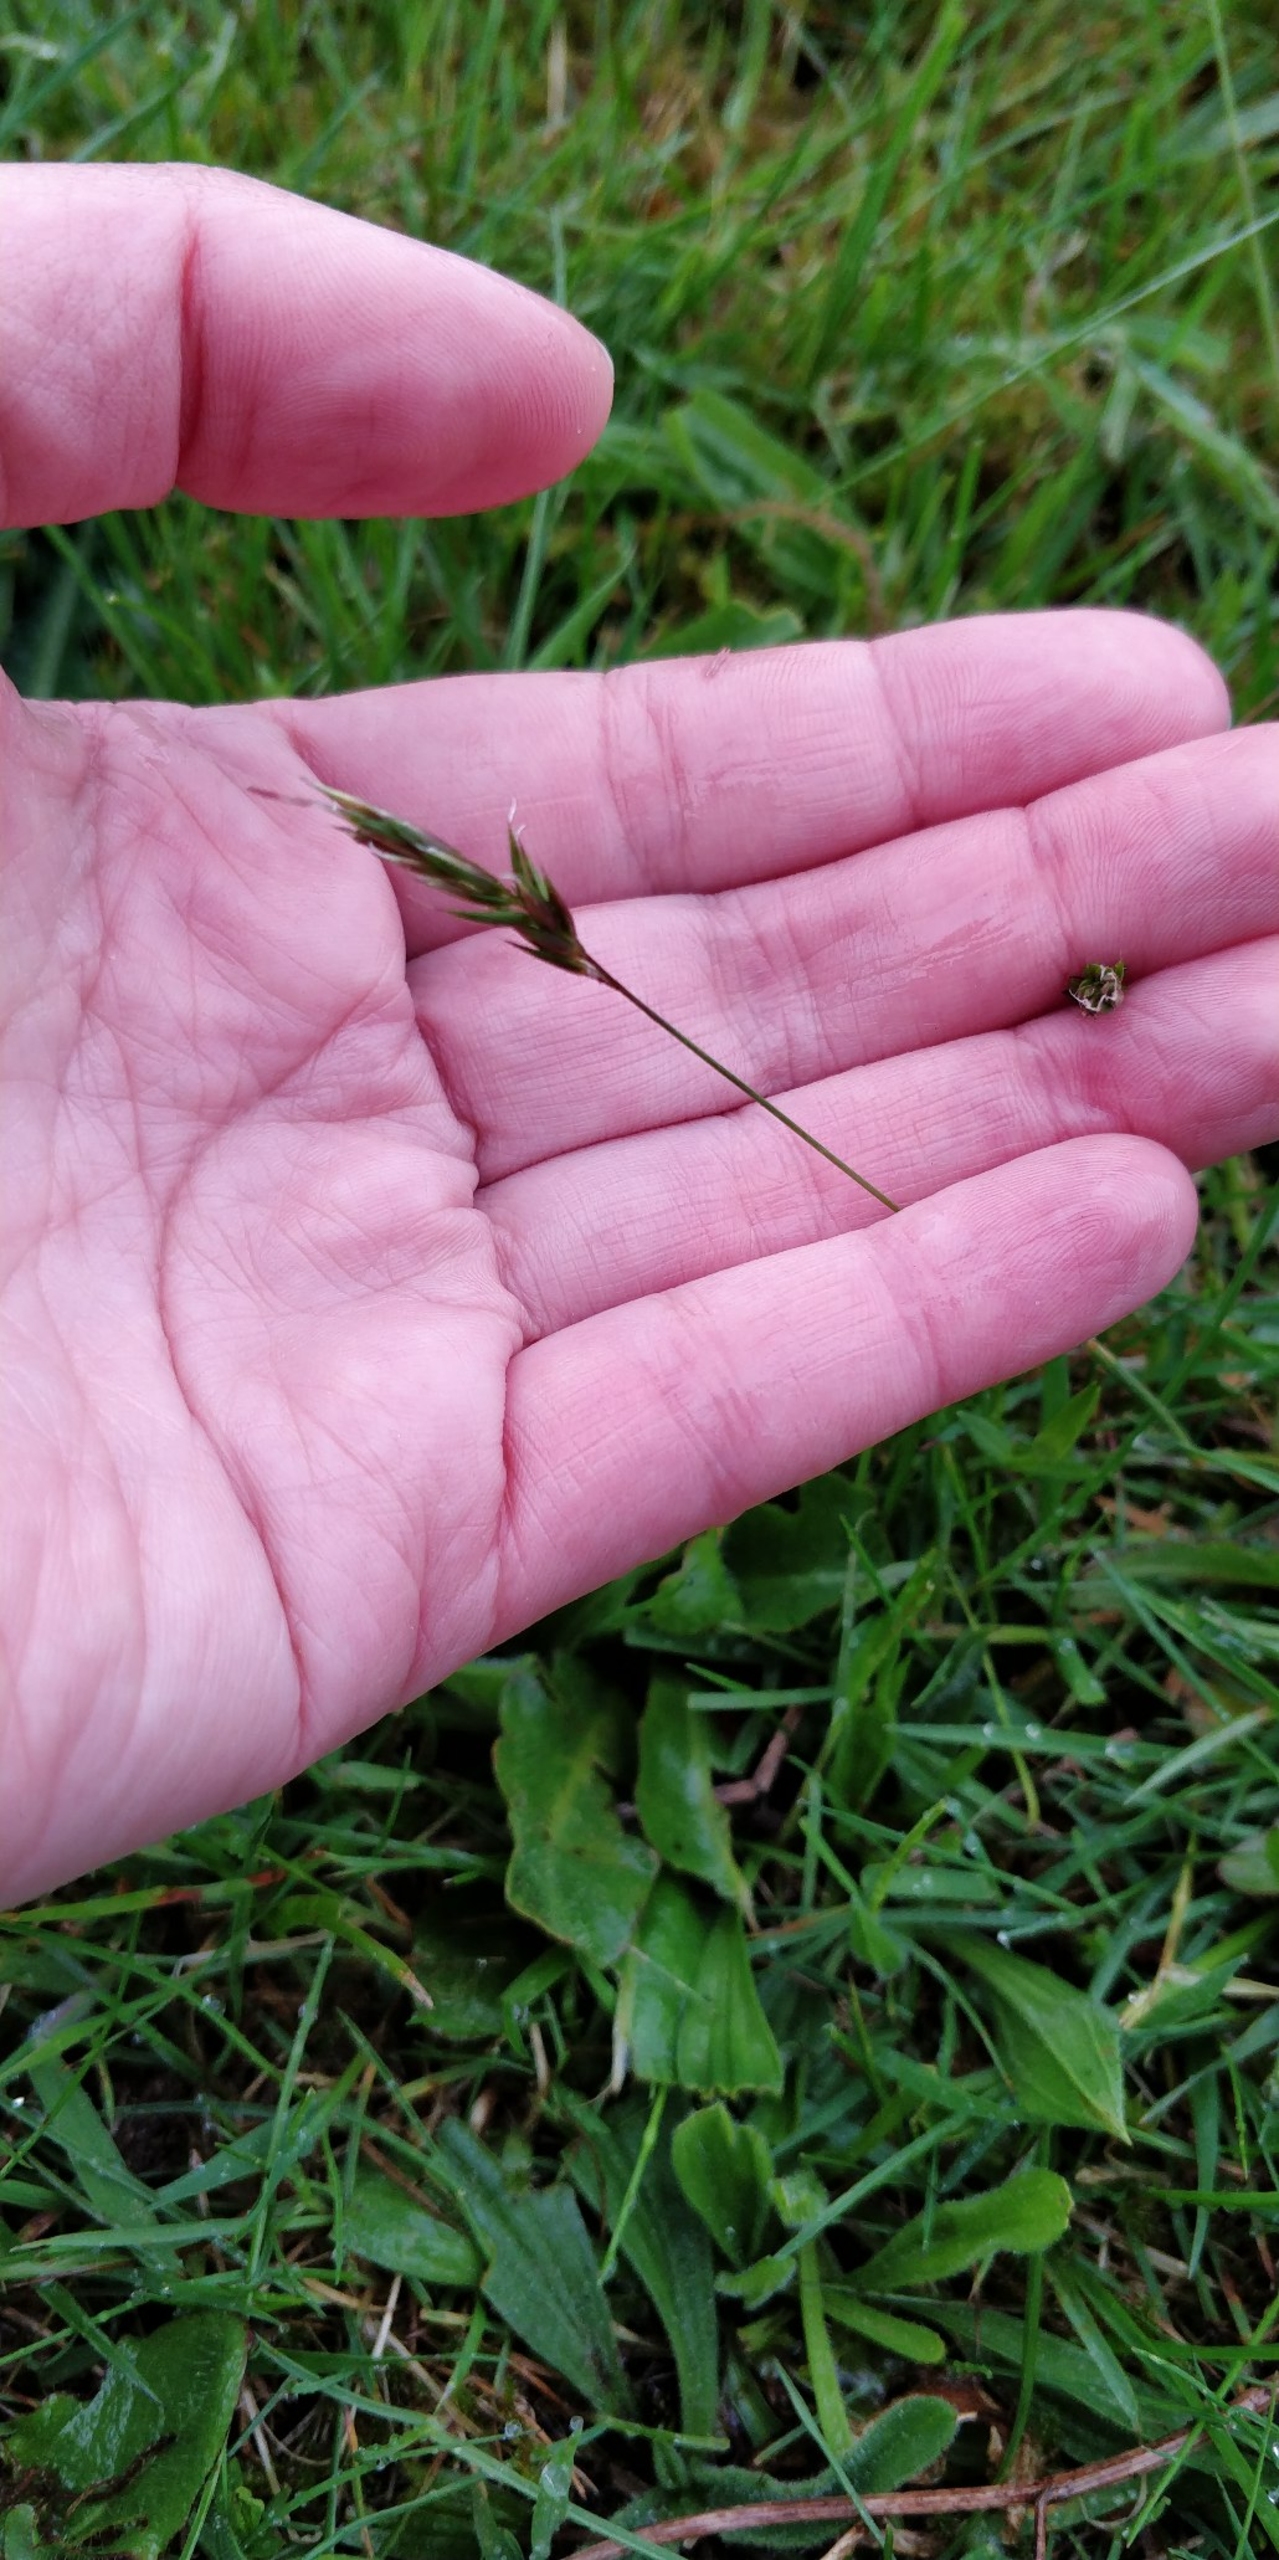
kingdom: Plantae
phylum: Tracheophyta
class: Liliopsida
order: Poales
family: Poaceae
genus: Anthoxanthum
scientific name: Anthoxanthum odoratum
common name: Vellugtende gulaks
